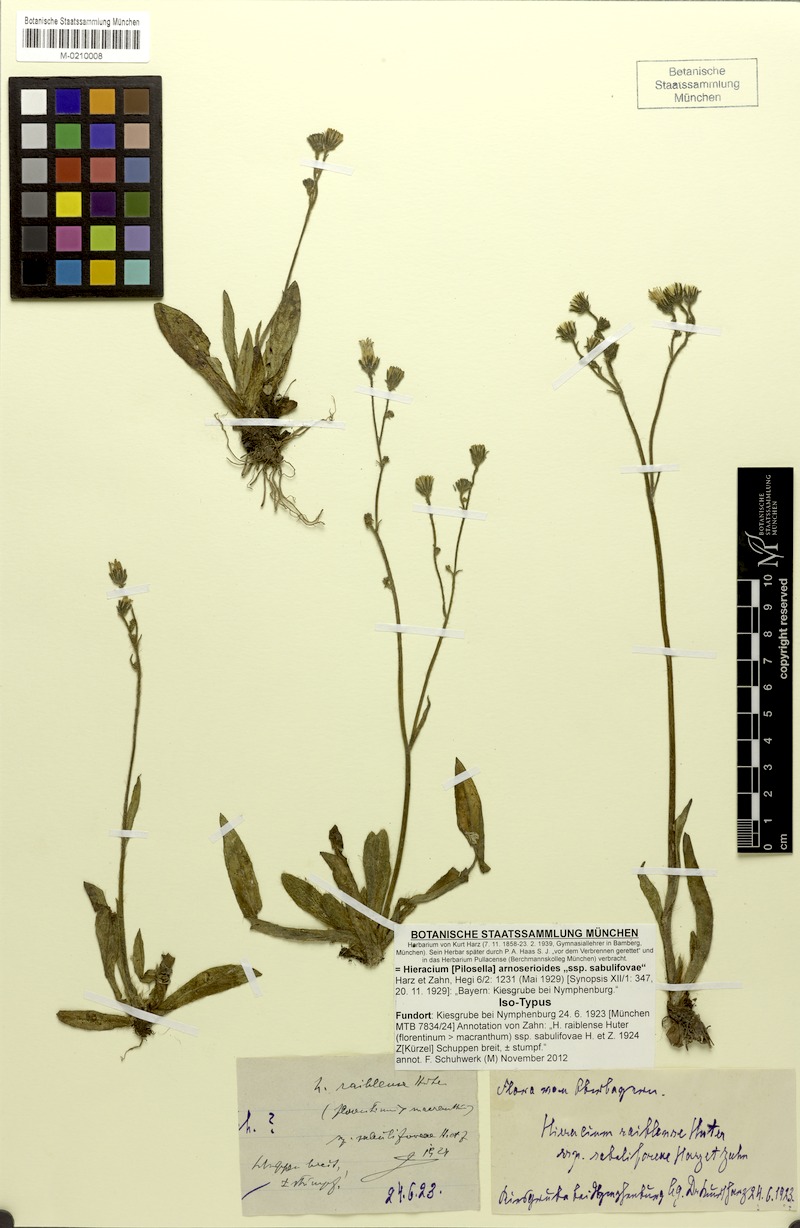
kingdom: Plantae
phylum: Tracheophyta
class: Magnoliopsida
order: Asterales
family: Asteraceae
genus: Pilosella
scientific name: Pilosella arnoserioides
